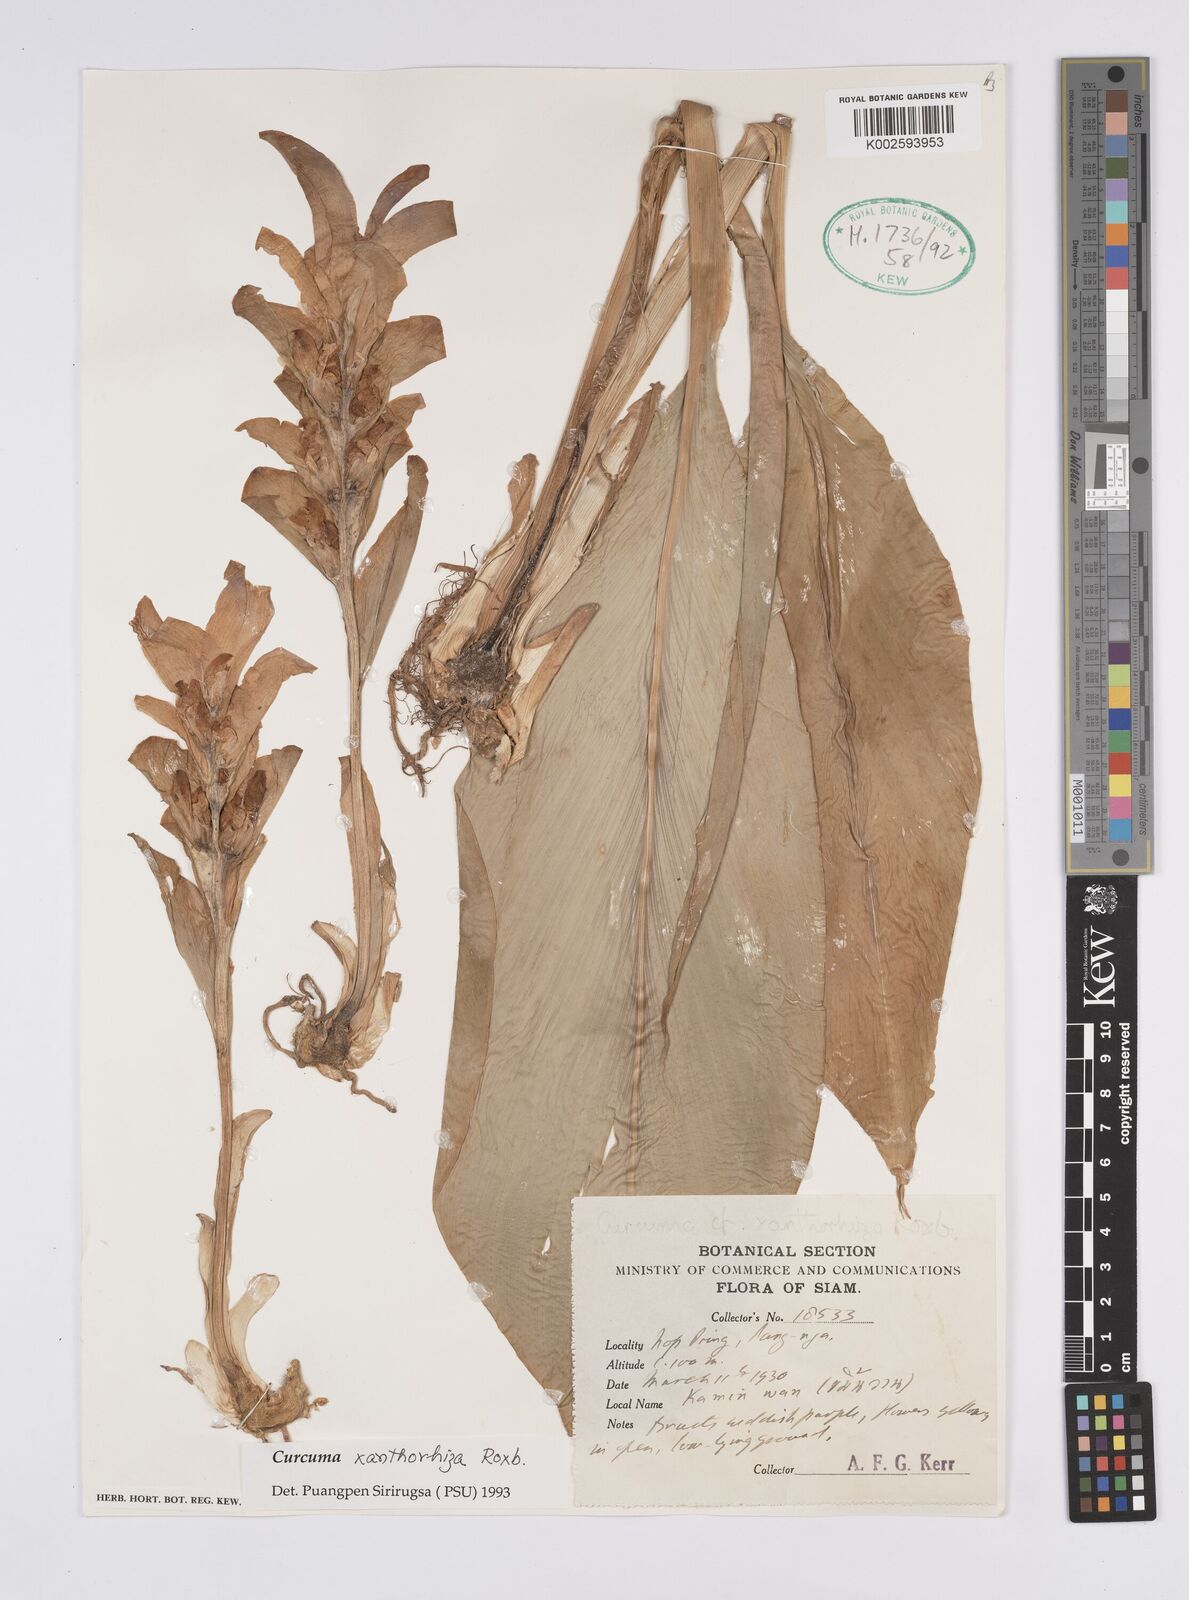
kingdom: Plantae
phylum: Tracheophyta
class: Liliopsida
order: Zingiberales
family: Zingiberaceae
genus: Curcuma
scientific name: Curcuma zanthorrhiza
